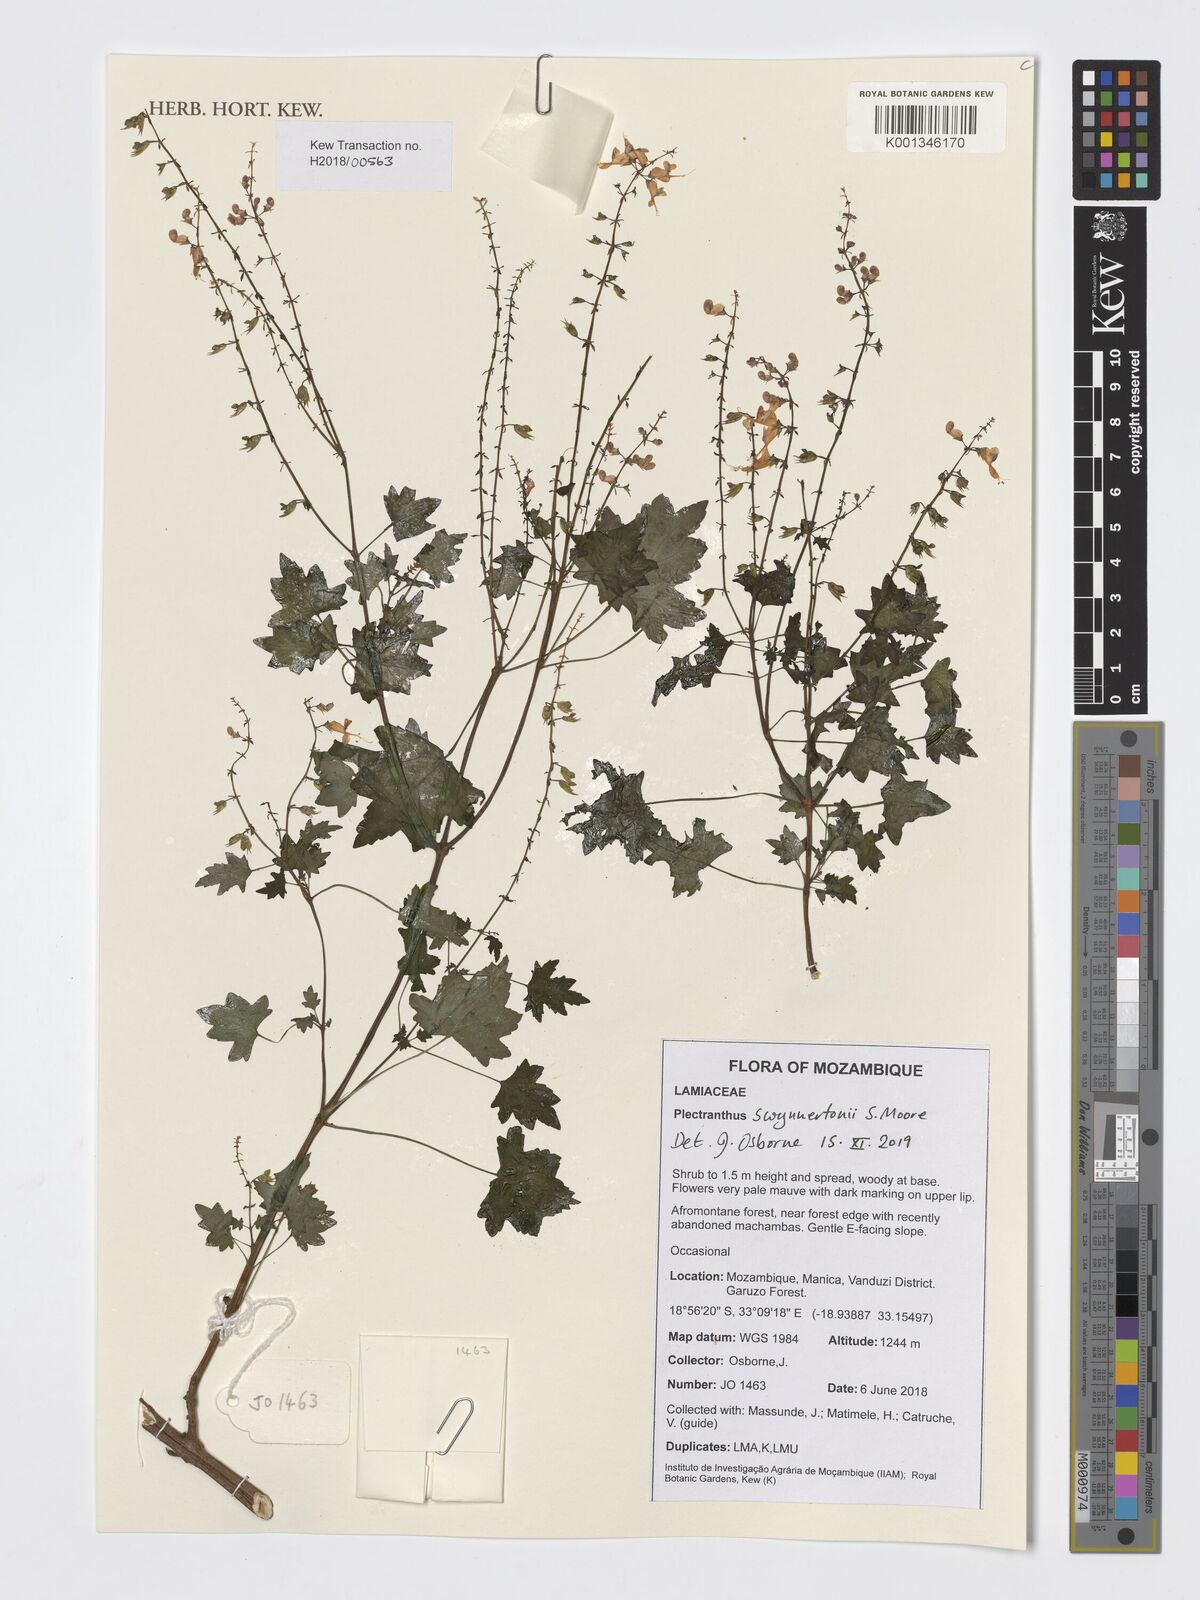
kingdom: Plantae
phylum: Tracheophyta
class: Magnoliopsida
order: Lamiales
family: Lamiaceae
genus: Plectranthus
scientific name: Plectranthus swynnertonii
